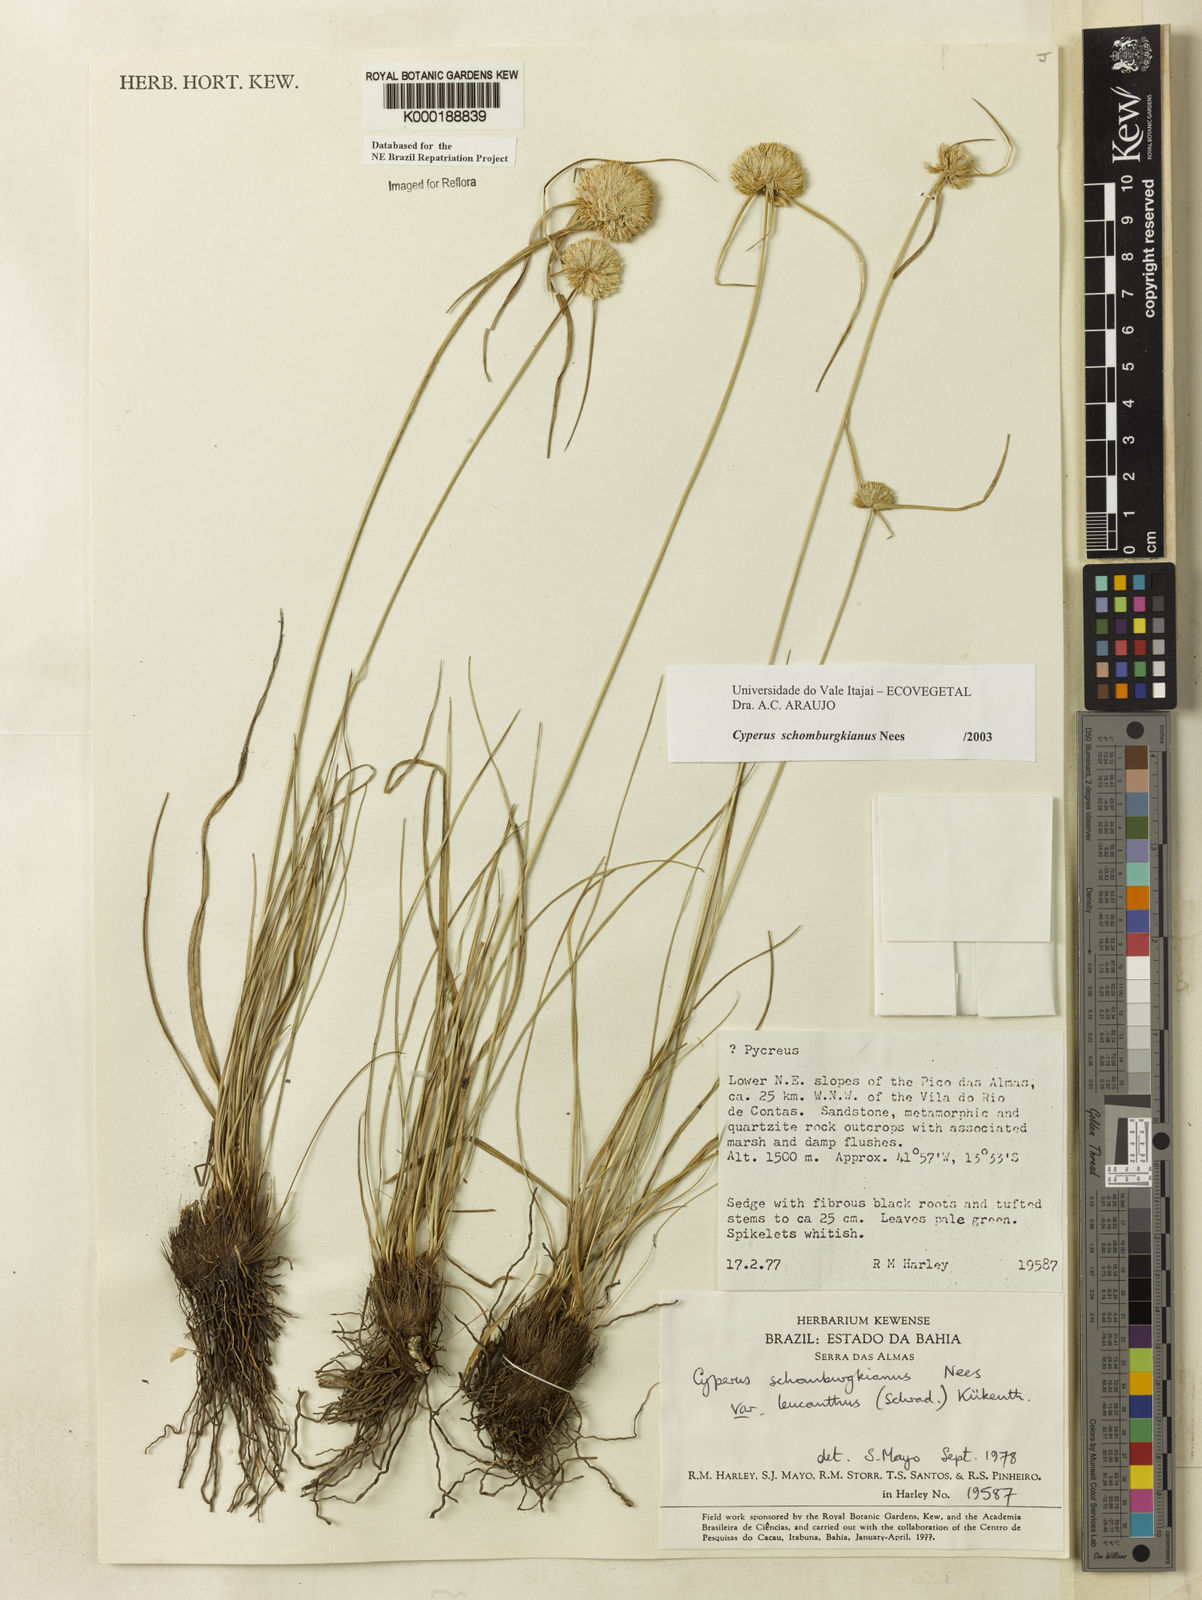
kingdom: Plantae
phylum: Tracheophyta
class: Liliopsida
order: Poales
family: Cyperaceae
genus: Cyperus
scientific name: Cyperus schomburgkianus
